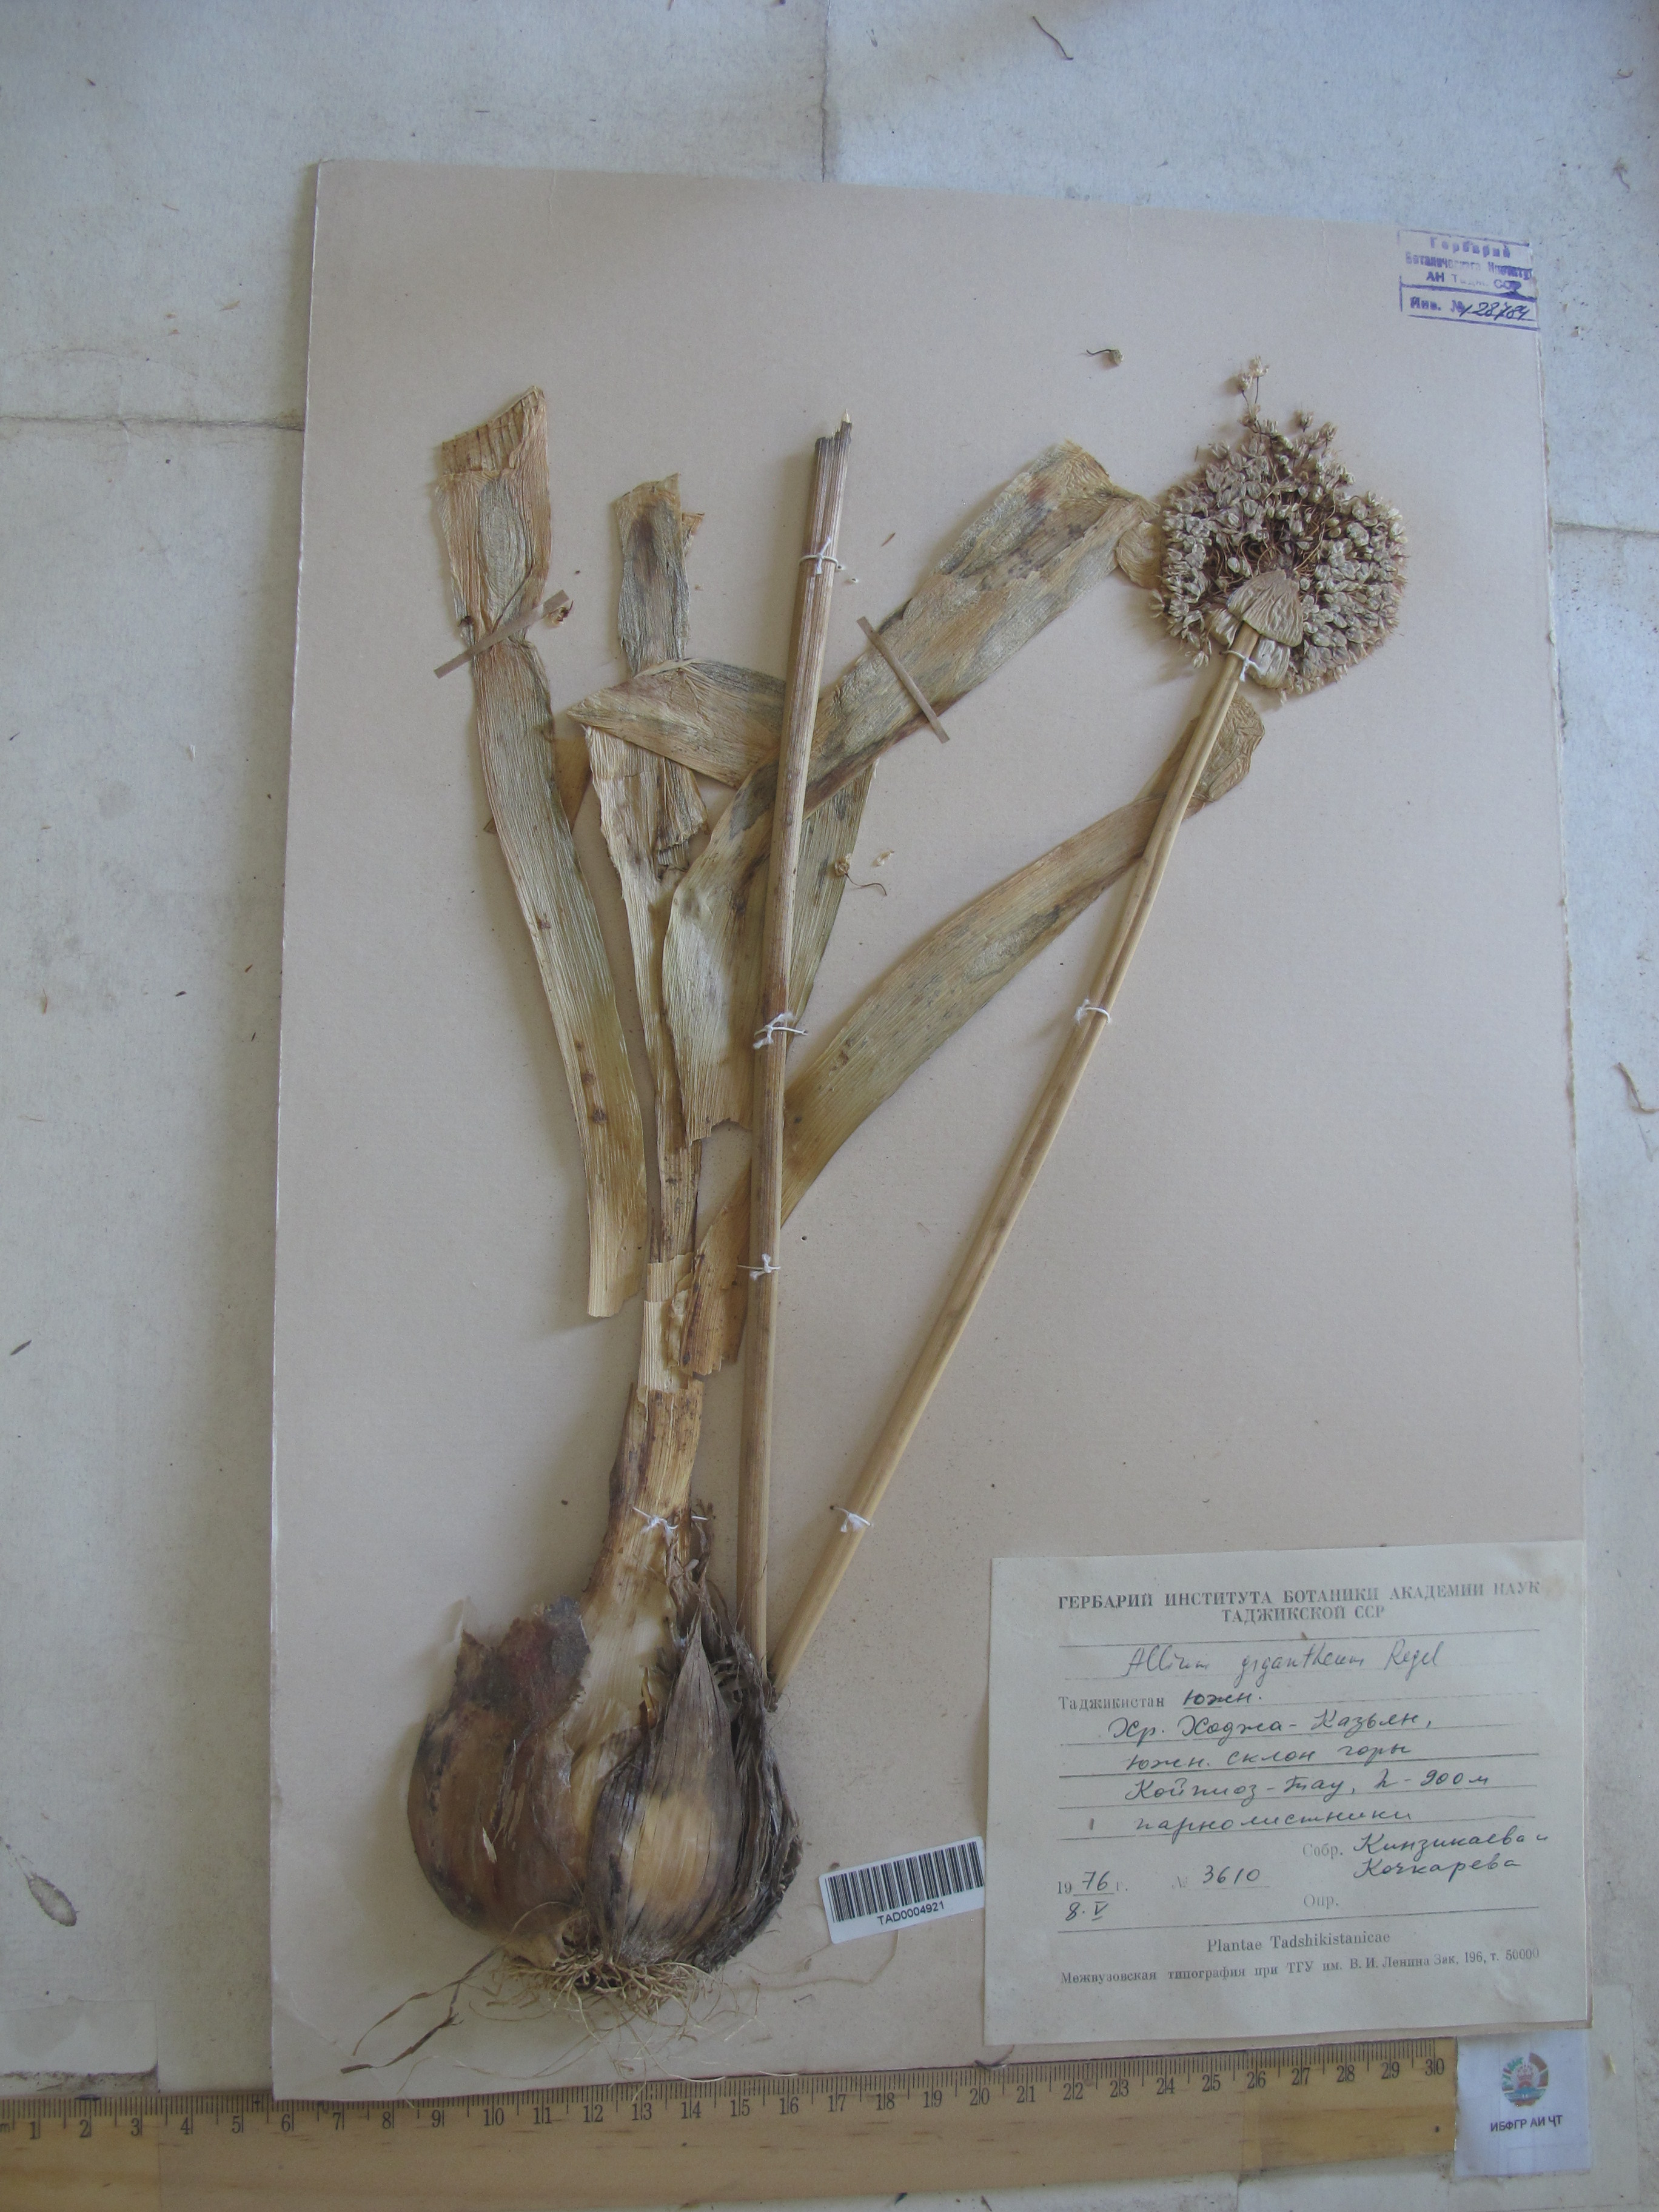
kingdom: Plantae
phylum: Tracheophyta
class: Liliopsida
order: Asparagales
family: Amaryllidaceae
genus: Allium
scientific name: Allium giganteum
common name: Giant onion
